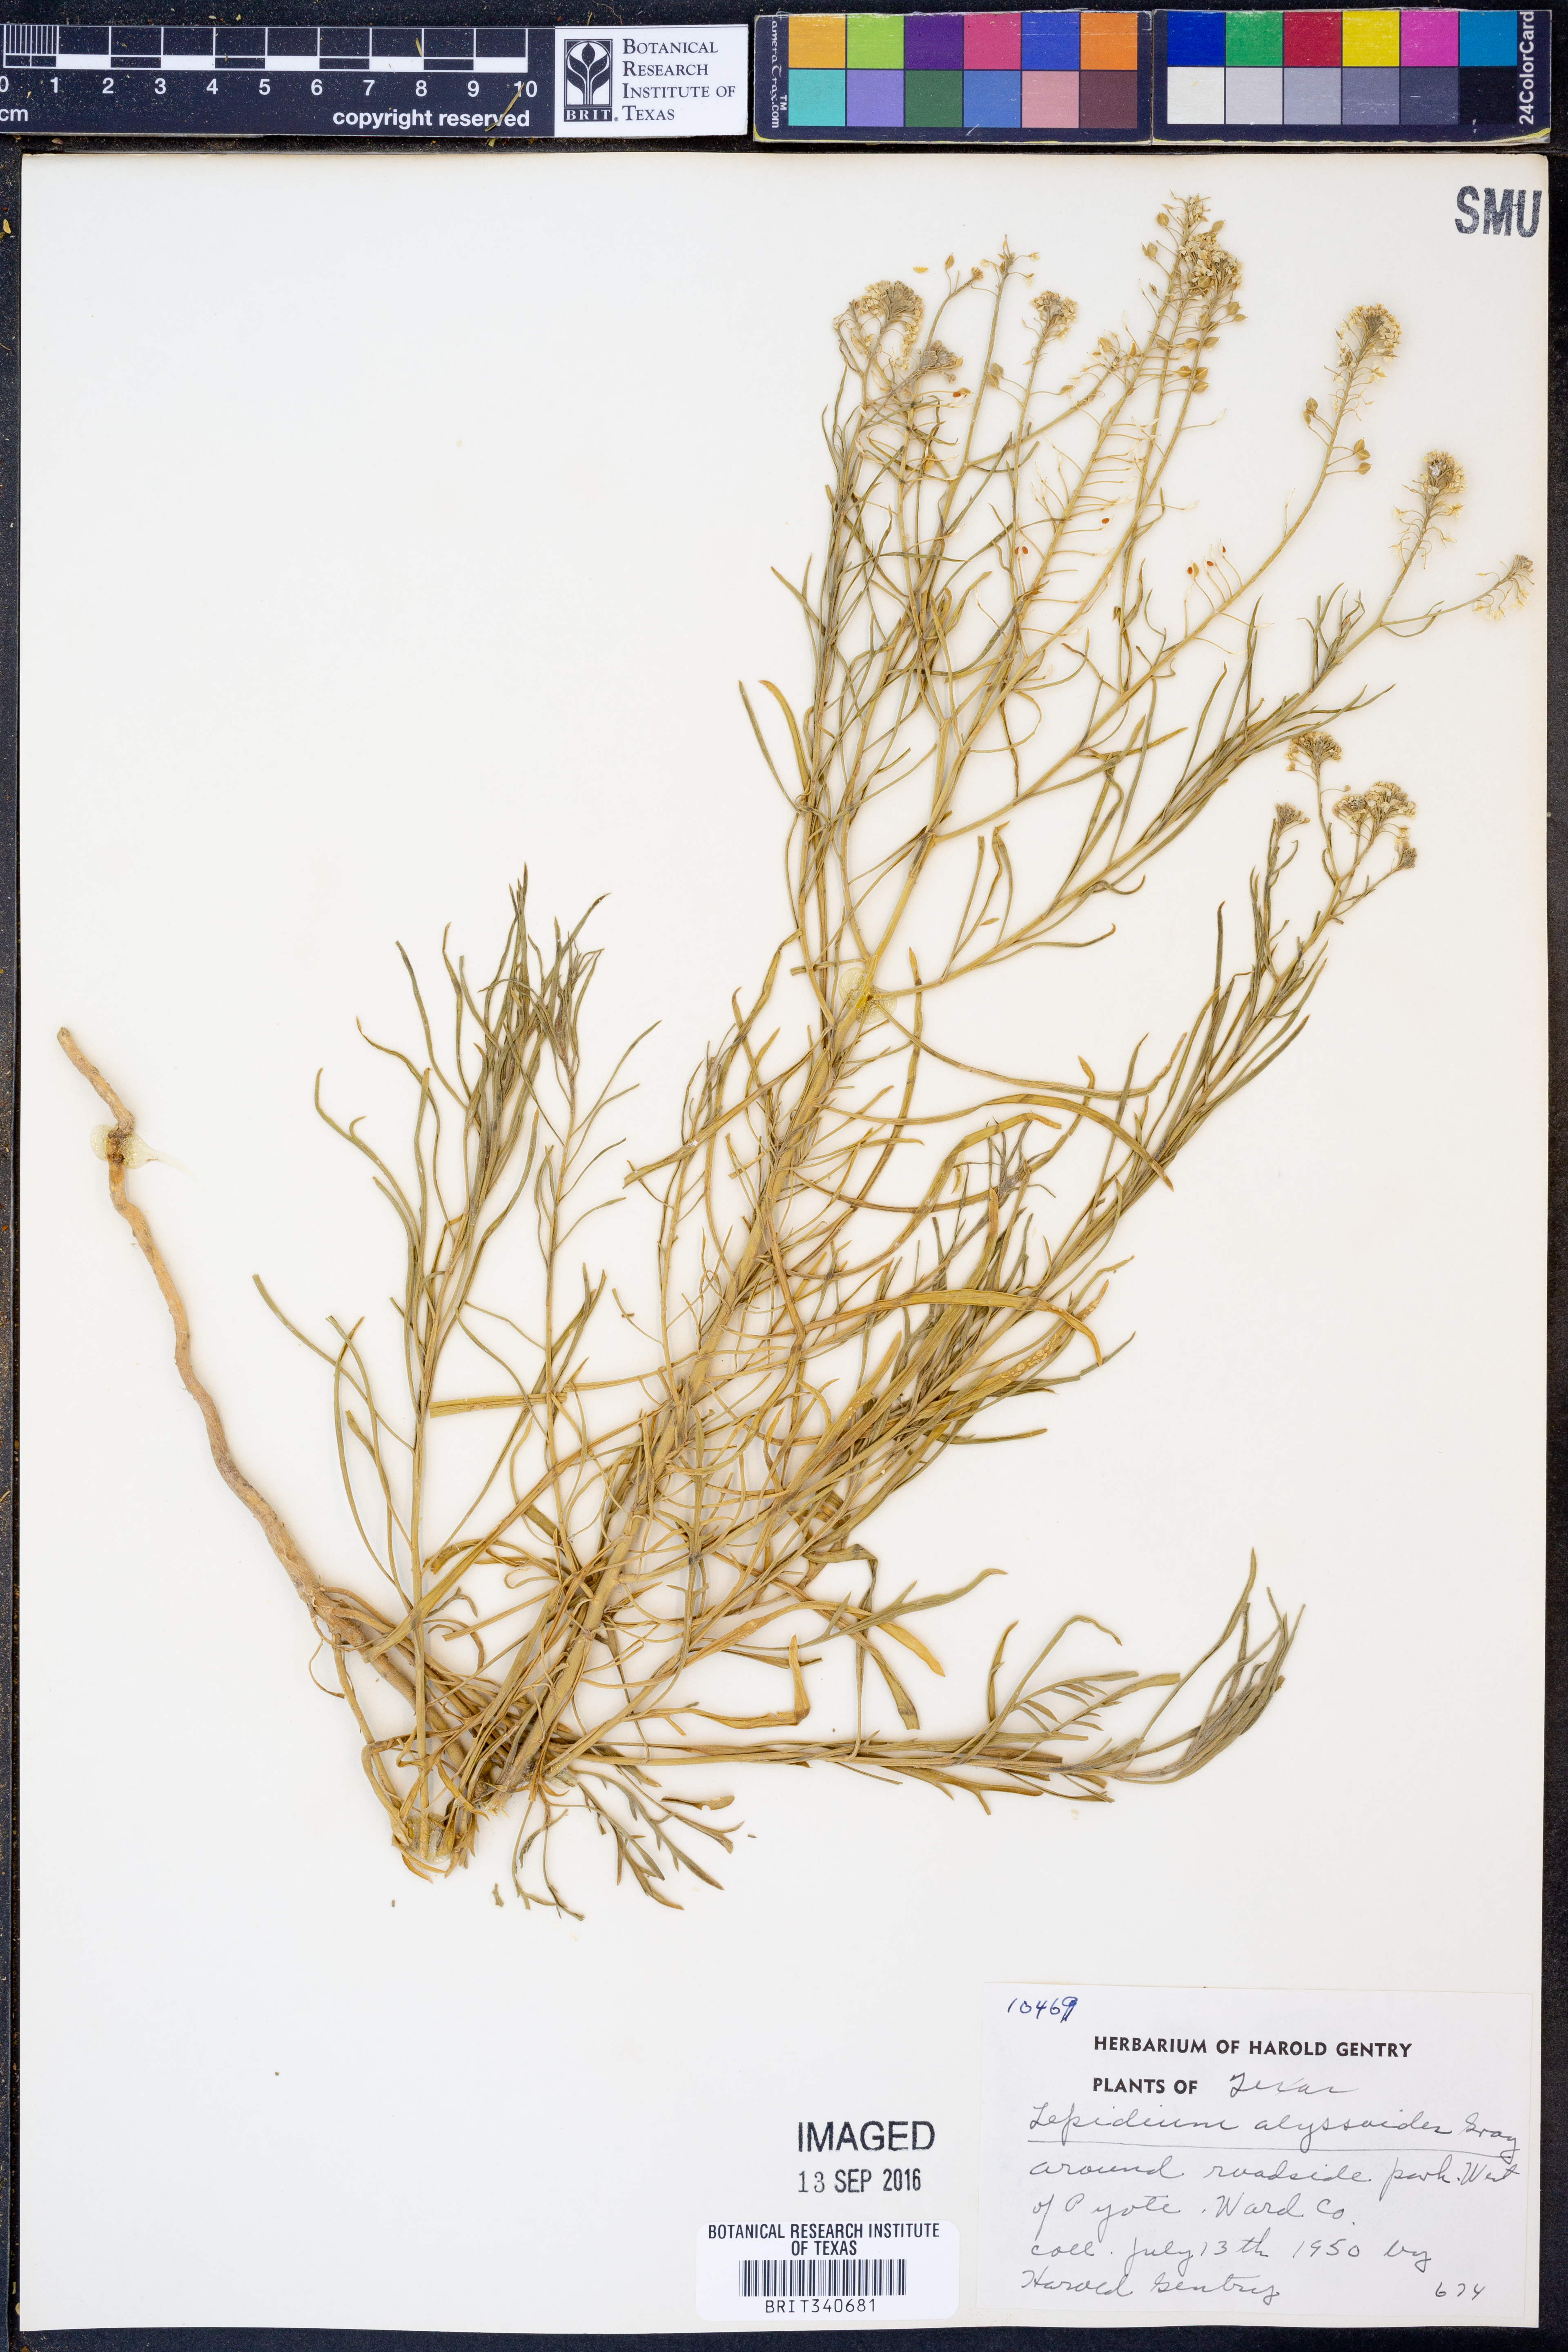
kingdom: Plantae
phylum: Tracheophyta
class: Magnoliopsida
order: Brassicales
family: Brassicaceae
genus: Lepidium
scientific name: Lepidium alyssoides
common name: Mesa pepperweed
